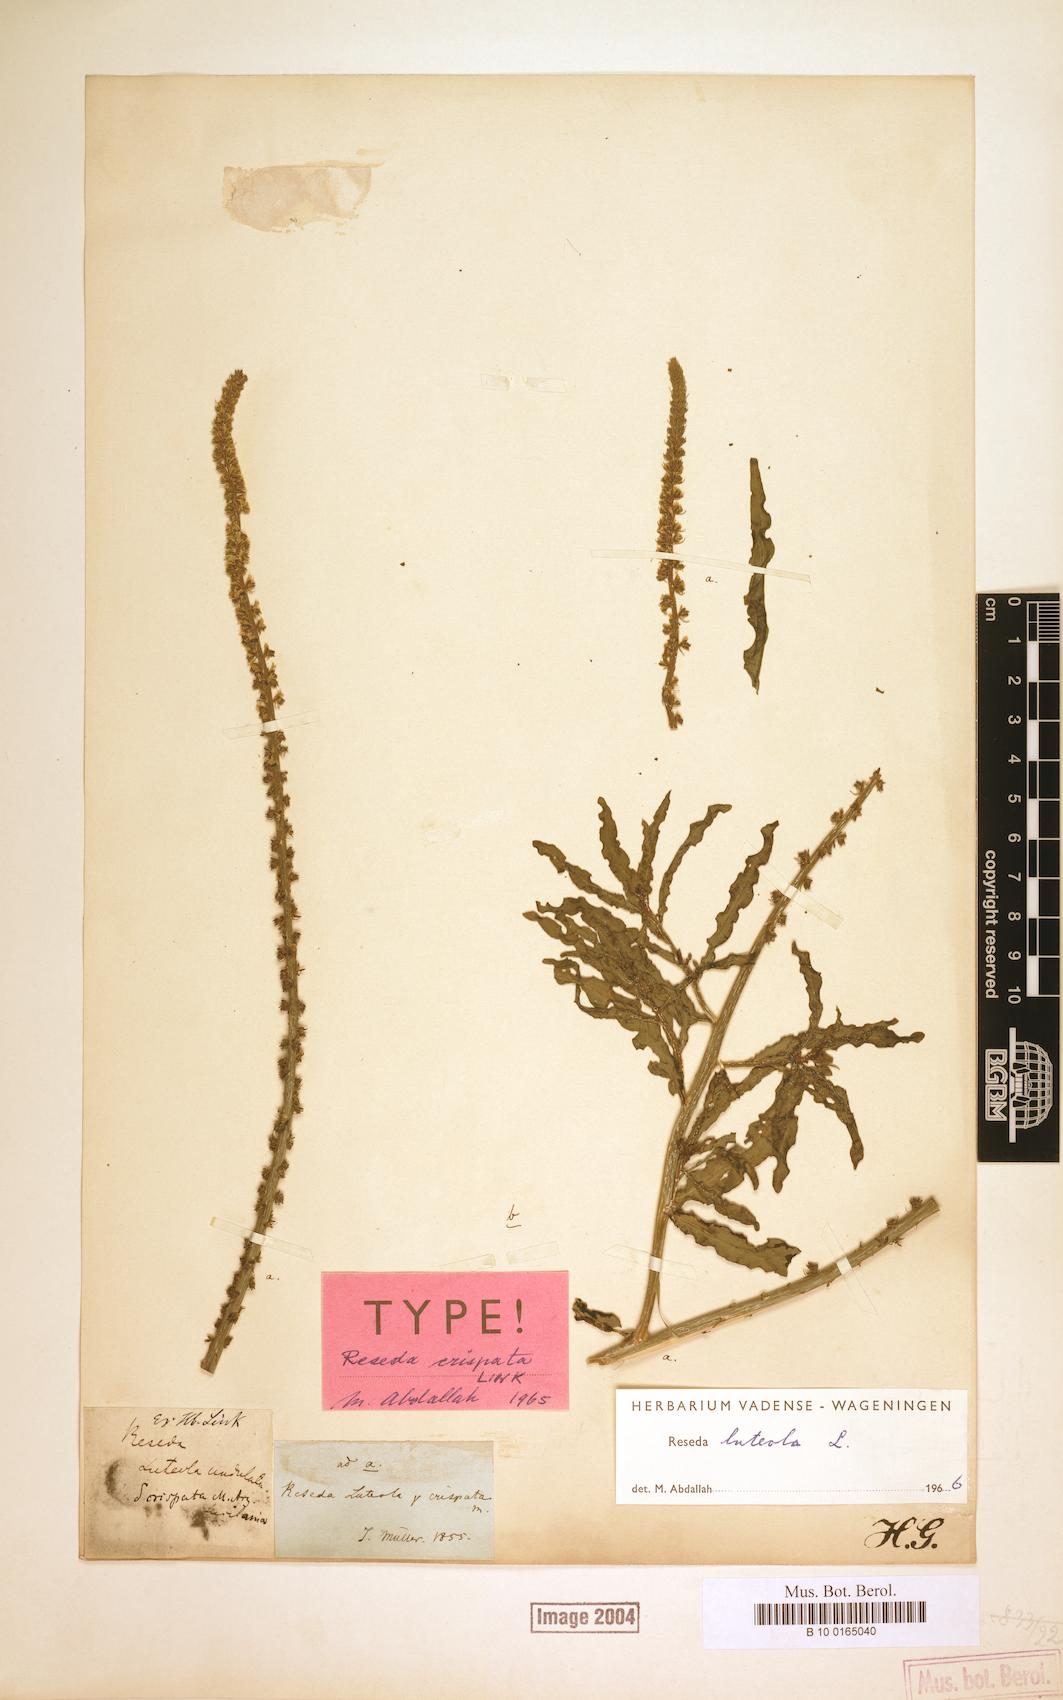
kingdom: Plantae
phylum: Tracheophyta
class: Magnoliopsida
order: Brassicales
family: Resedaceae
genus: Reseda
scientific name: Reseda luteola
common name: Weld
